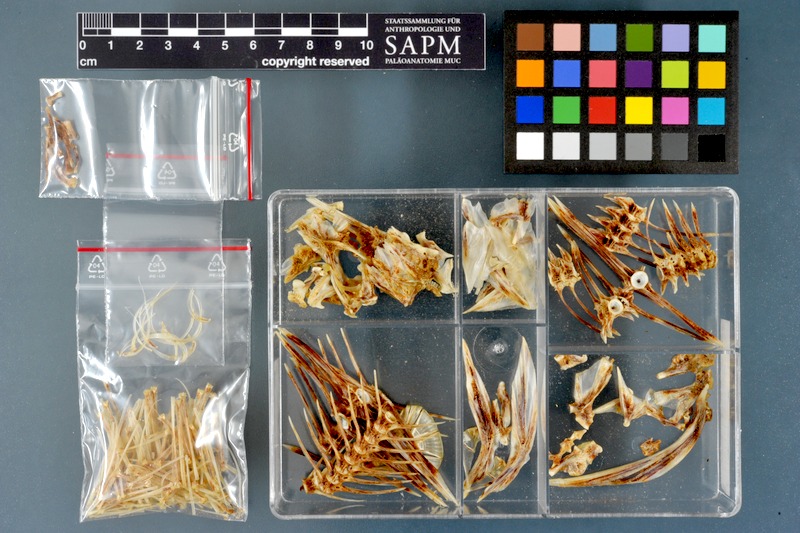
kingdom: Animalia
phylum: Chordata
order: Pleuronectiformes
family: Pleuronectidae
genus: Platichthys
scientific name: Platichthys flesus
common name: European flounder
